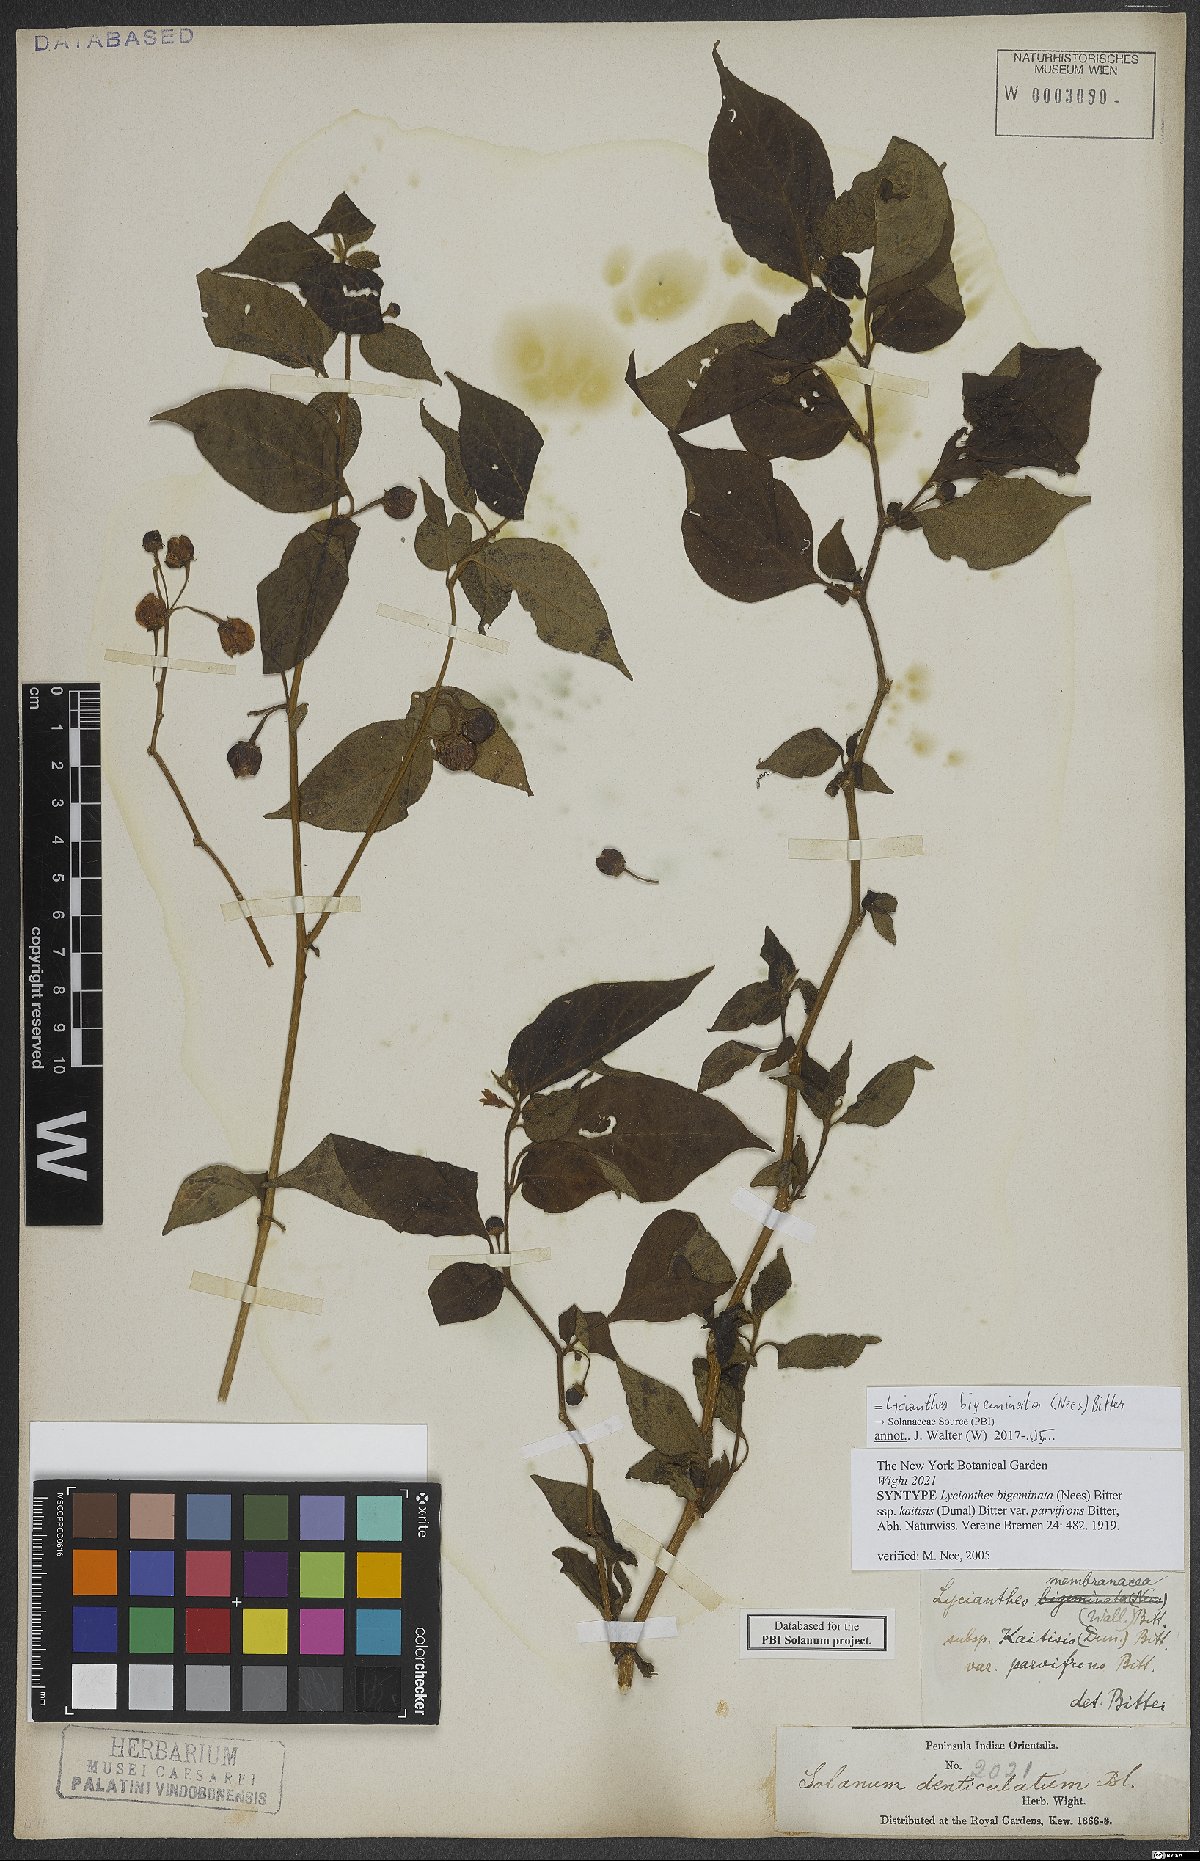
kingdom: Plantae
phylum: Tracheophyta
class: Magnoliopsida
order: Solanales
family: Solanaceae
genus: Lycianthes
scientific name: Lycianthes bigeminata
